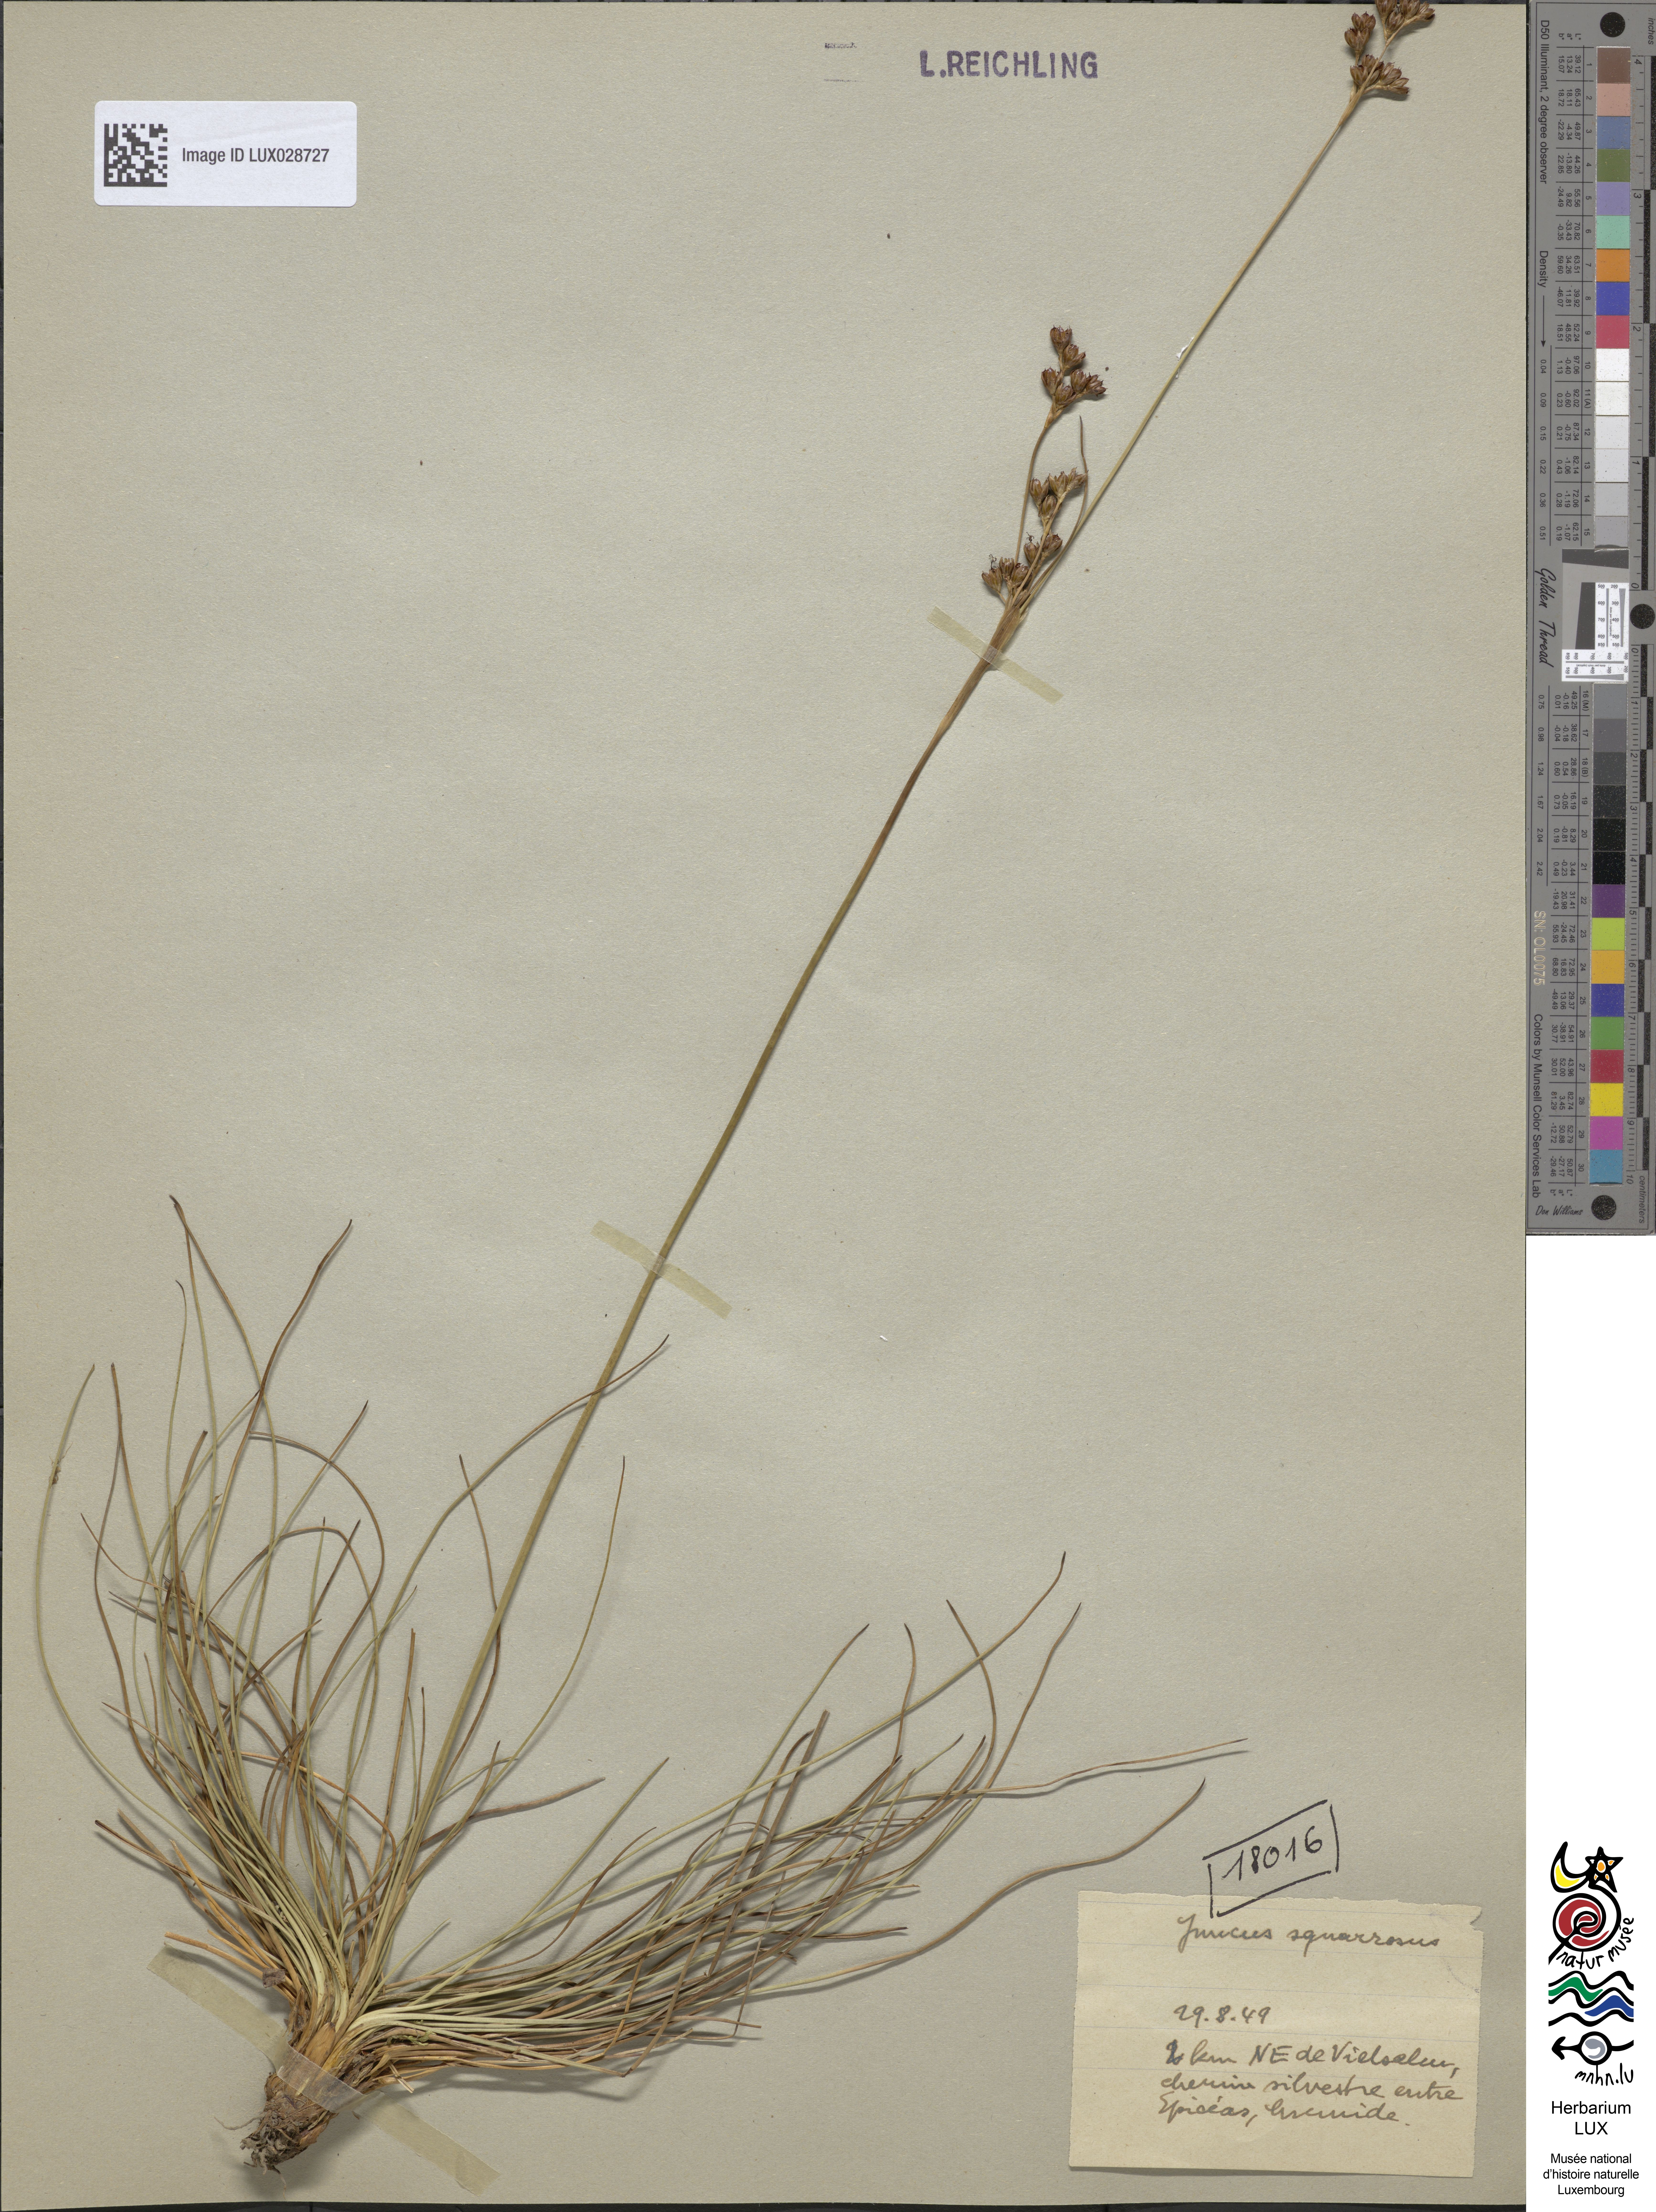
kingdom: Plantae
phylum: Tracheophyta
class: Liliopsida
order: Poales
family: Juncaceae
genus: Juncus
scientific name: Juncus squarrosus
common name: Heath rush
